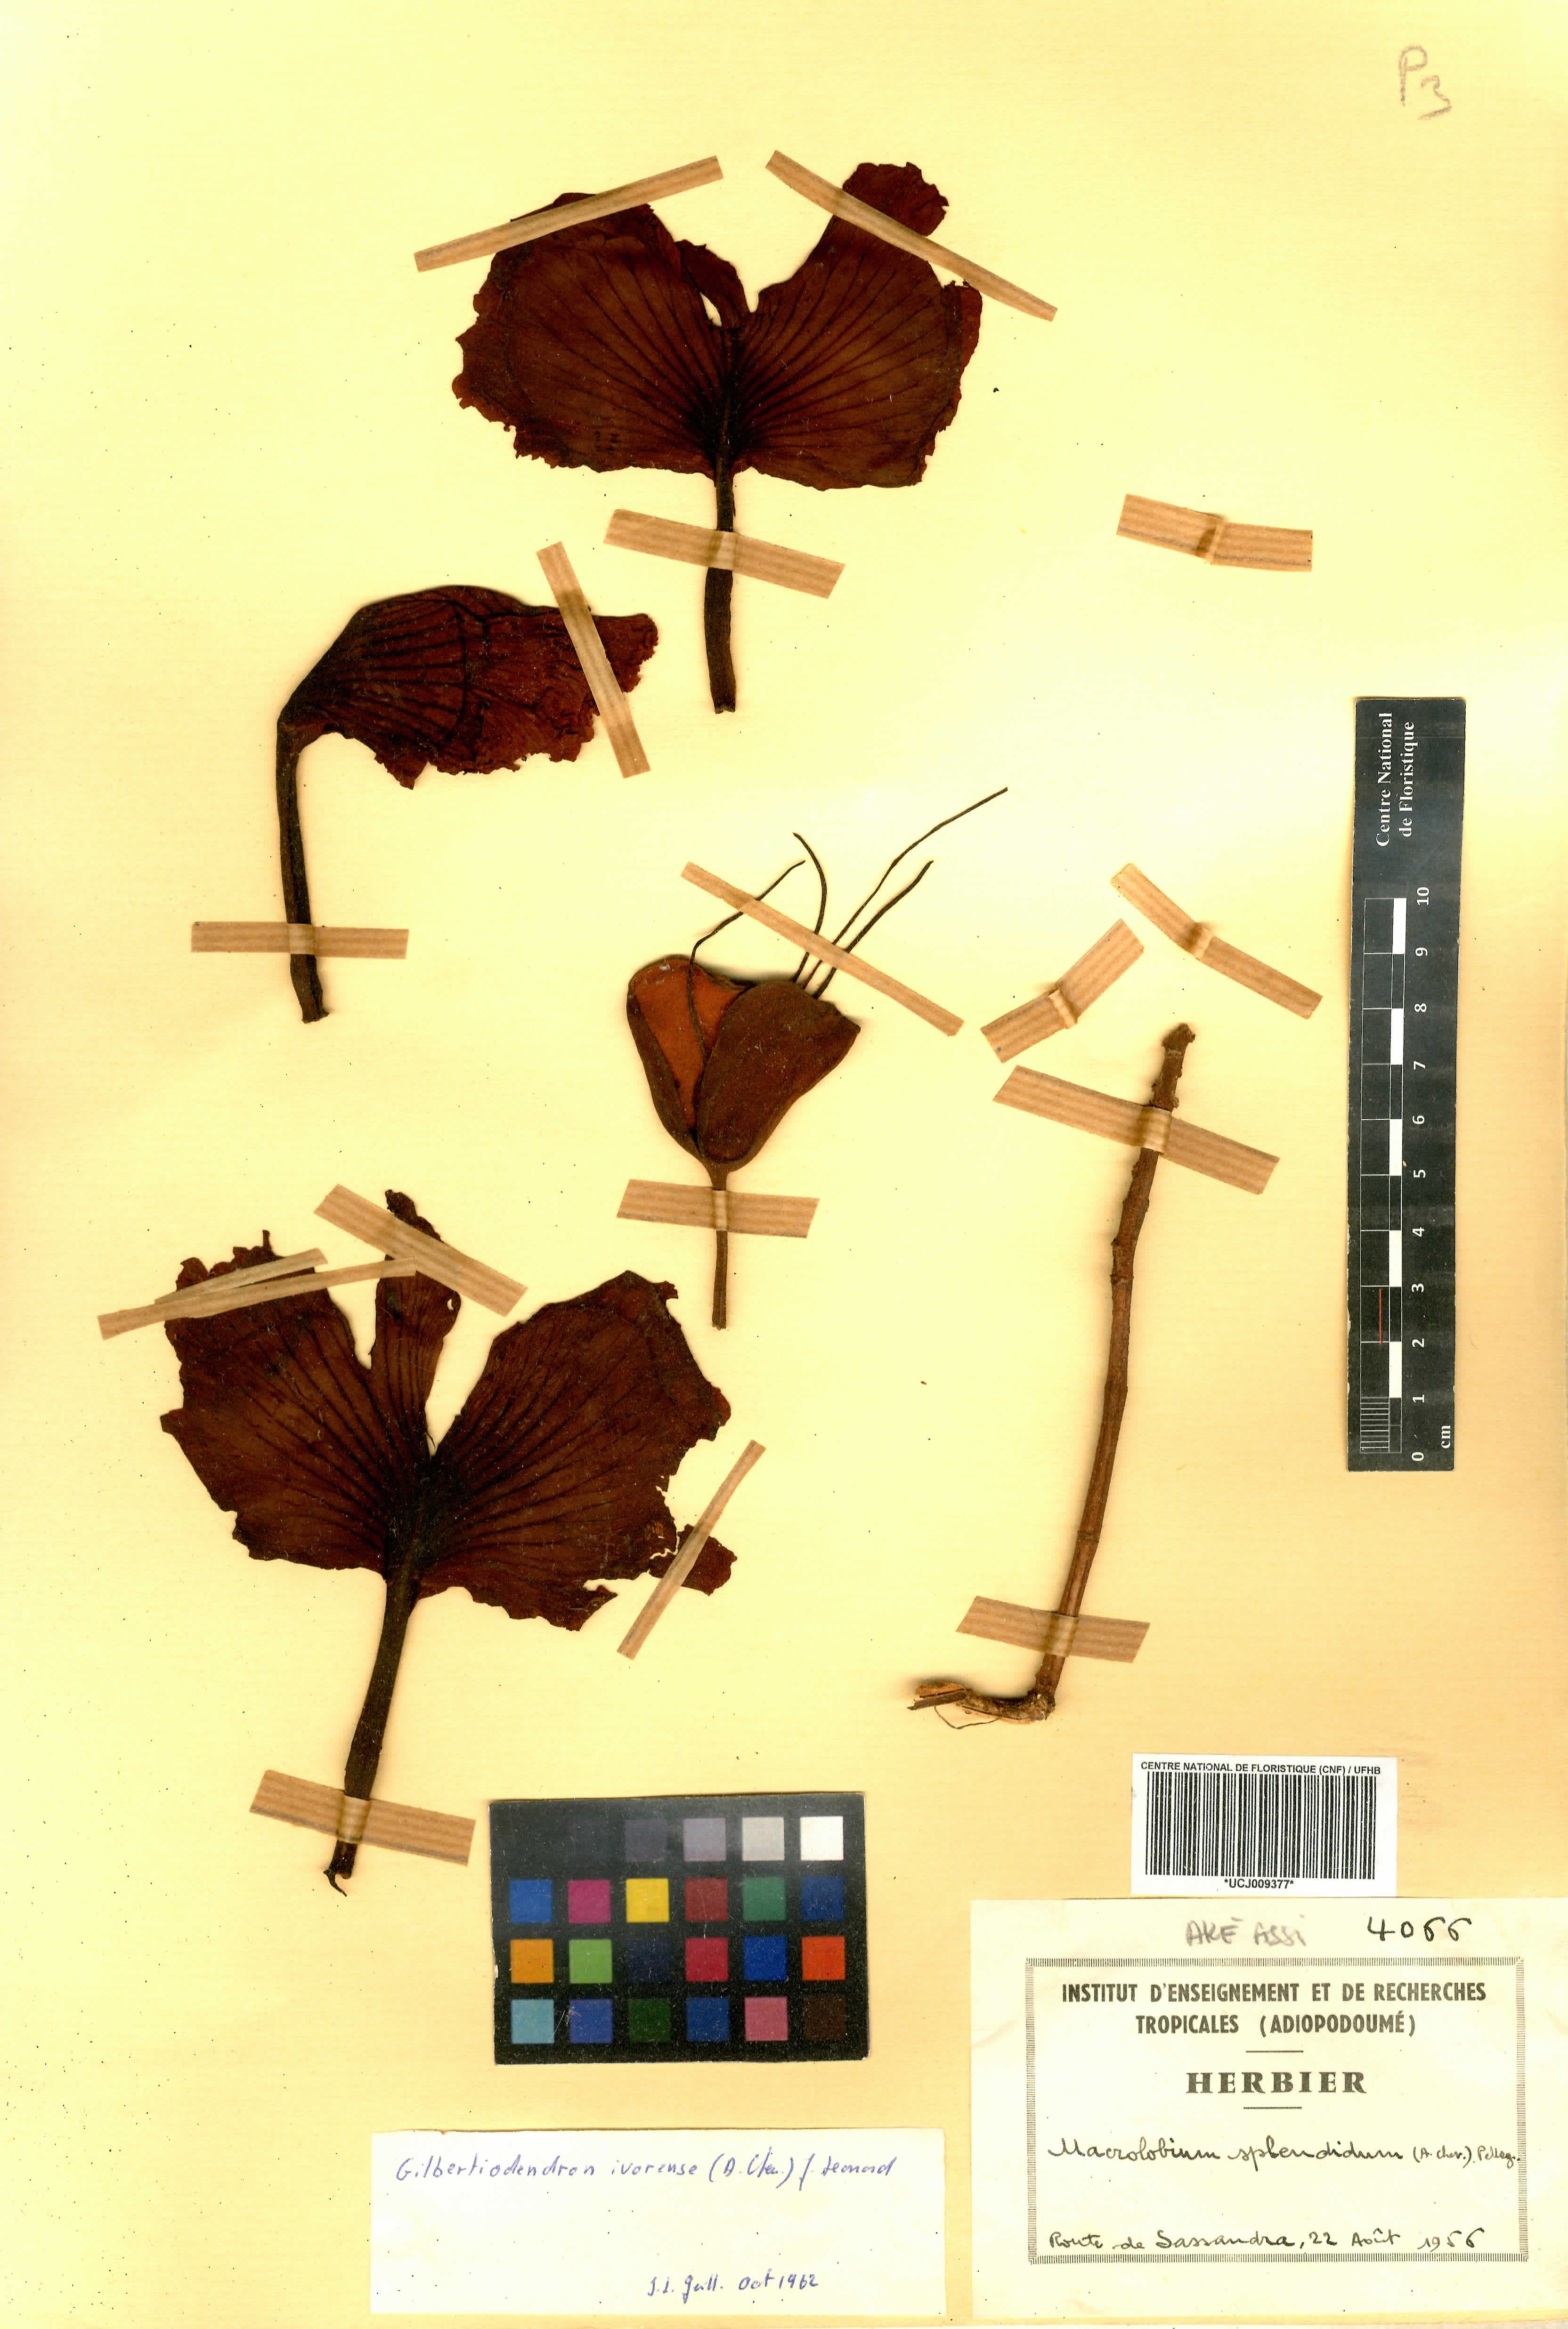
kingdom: Plantae
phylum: Tracheophyta
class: Magnoliopsida
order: Fabales
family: Fabaceae
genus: Gilbertiodendron
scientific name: Gilbertiodendron splendidum
